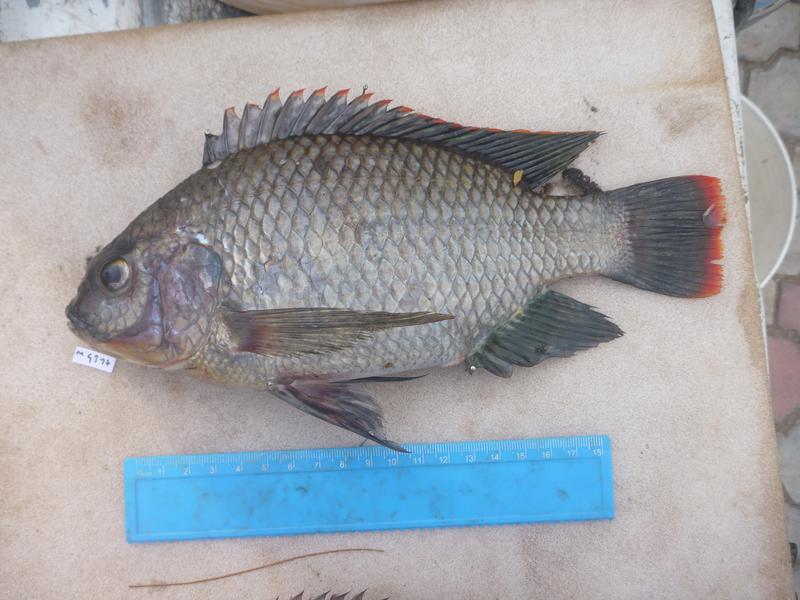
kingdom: Animalia
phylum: Chordata
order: Perciformes
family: Cichlidae
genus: Oreochromis
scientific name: Oreochromis variabilis
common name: Victoria tilapia
